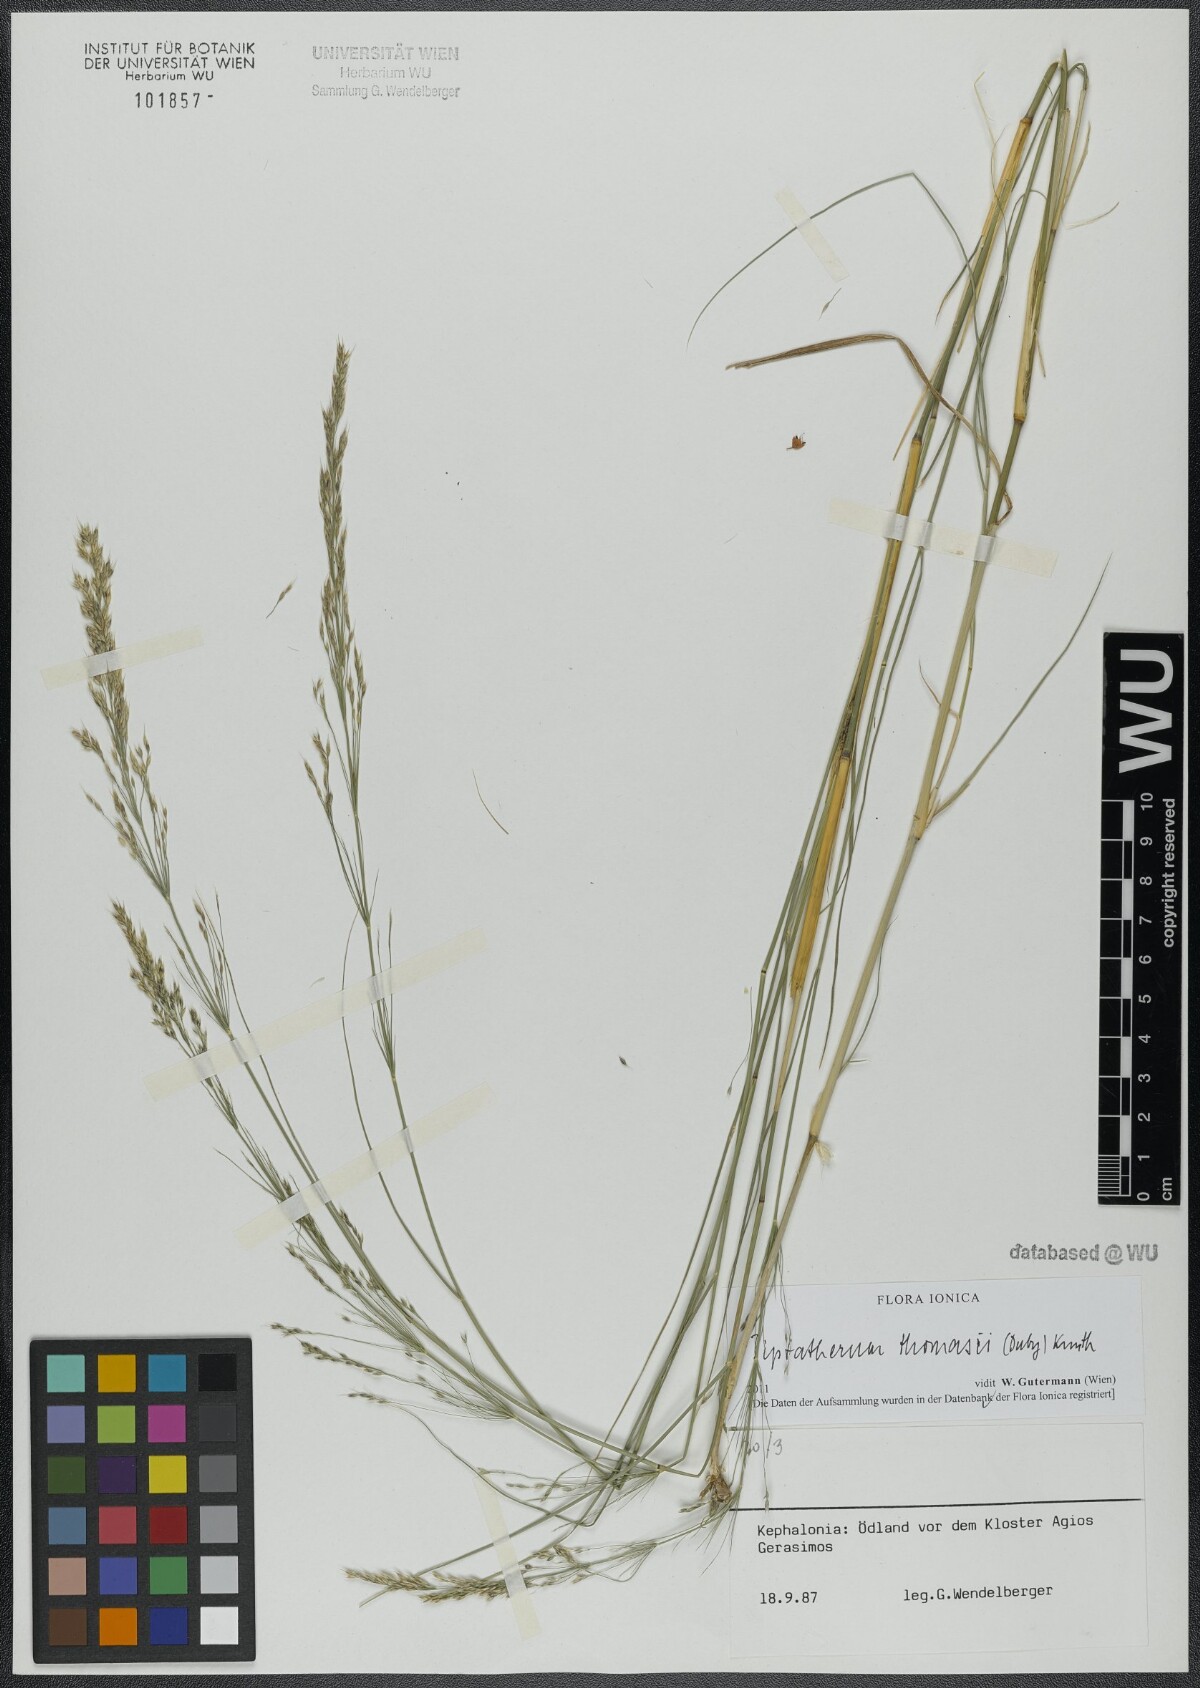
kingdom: Plantae
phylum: Tracheophyta
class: Liliopsida
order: Poales
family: Poaceae
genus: Oloptum
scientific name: Oloptum thomasii
